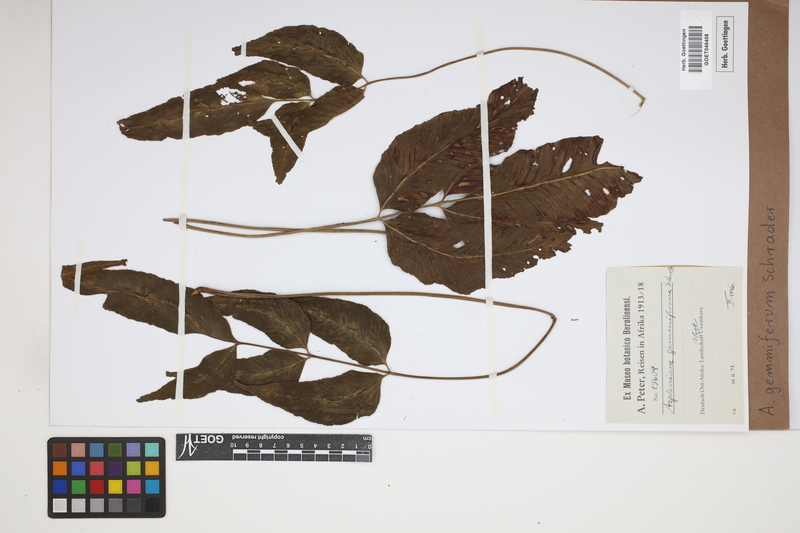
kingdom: Plantae
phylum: Tracheophyta
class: Polypodiopsida
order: Polypodiales
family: Aspleniaceae
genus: Asplenium
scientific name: Asplenium gemmiferum
